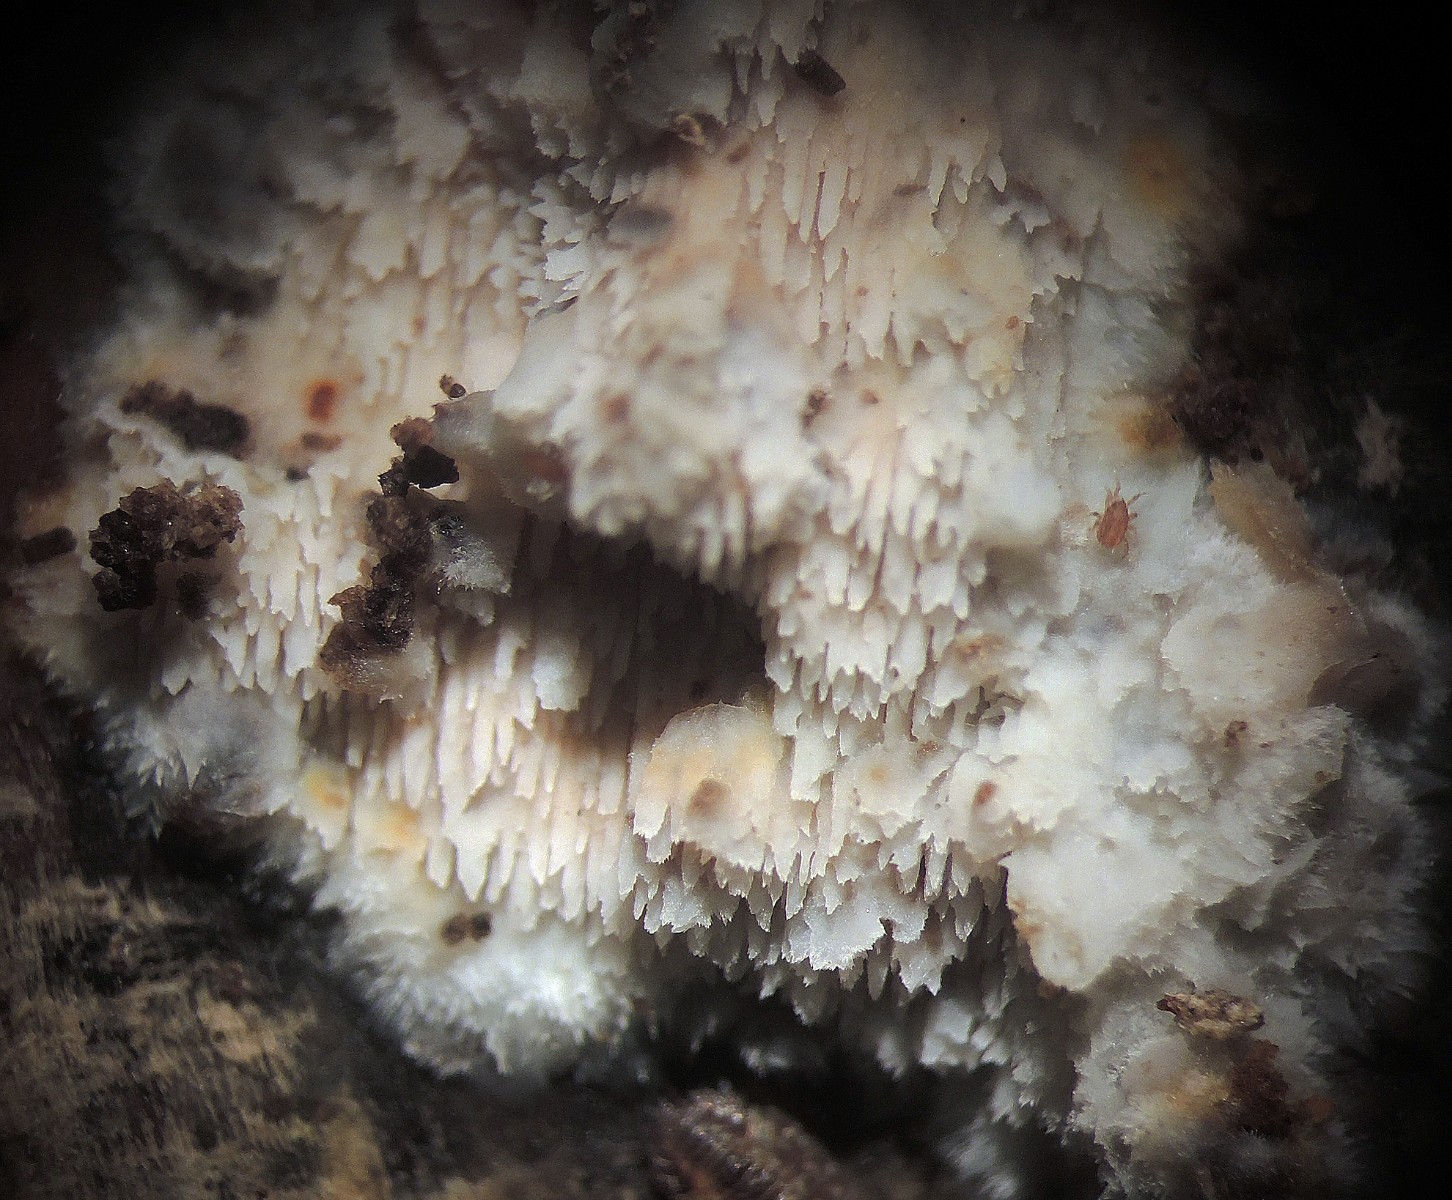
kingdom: Fungi
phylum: Basidiomycota
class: Agaricomycetes
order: Polyporales
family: Meruliaceae
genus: Mycoacia
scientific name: Mycoacia aurea
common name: lang vokspig
